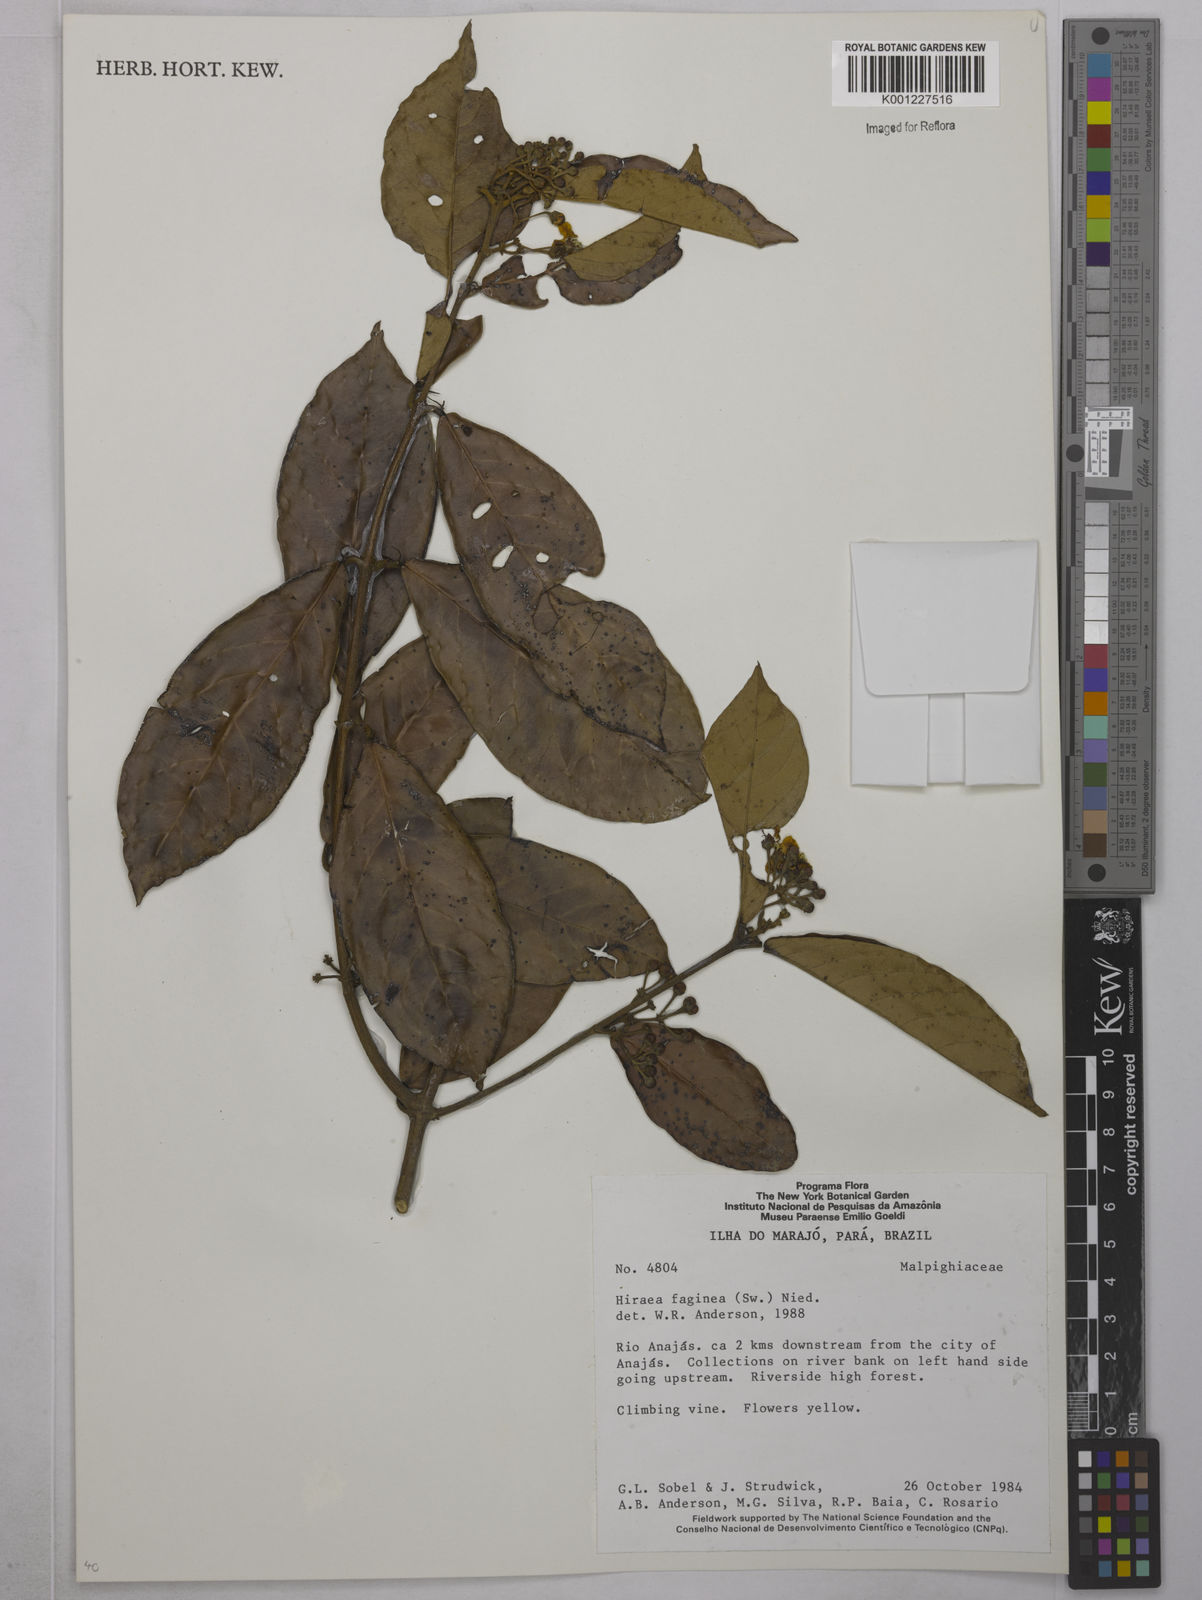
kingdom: Plantae
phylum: Tracheophyta
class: Magnoliopsida
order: Malpighiales
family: Malpighiaceae
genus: Hiraea
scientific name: Hiraea faginea
